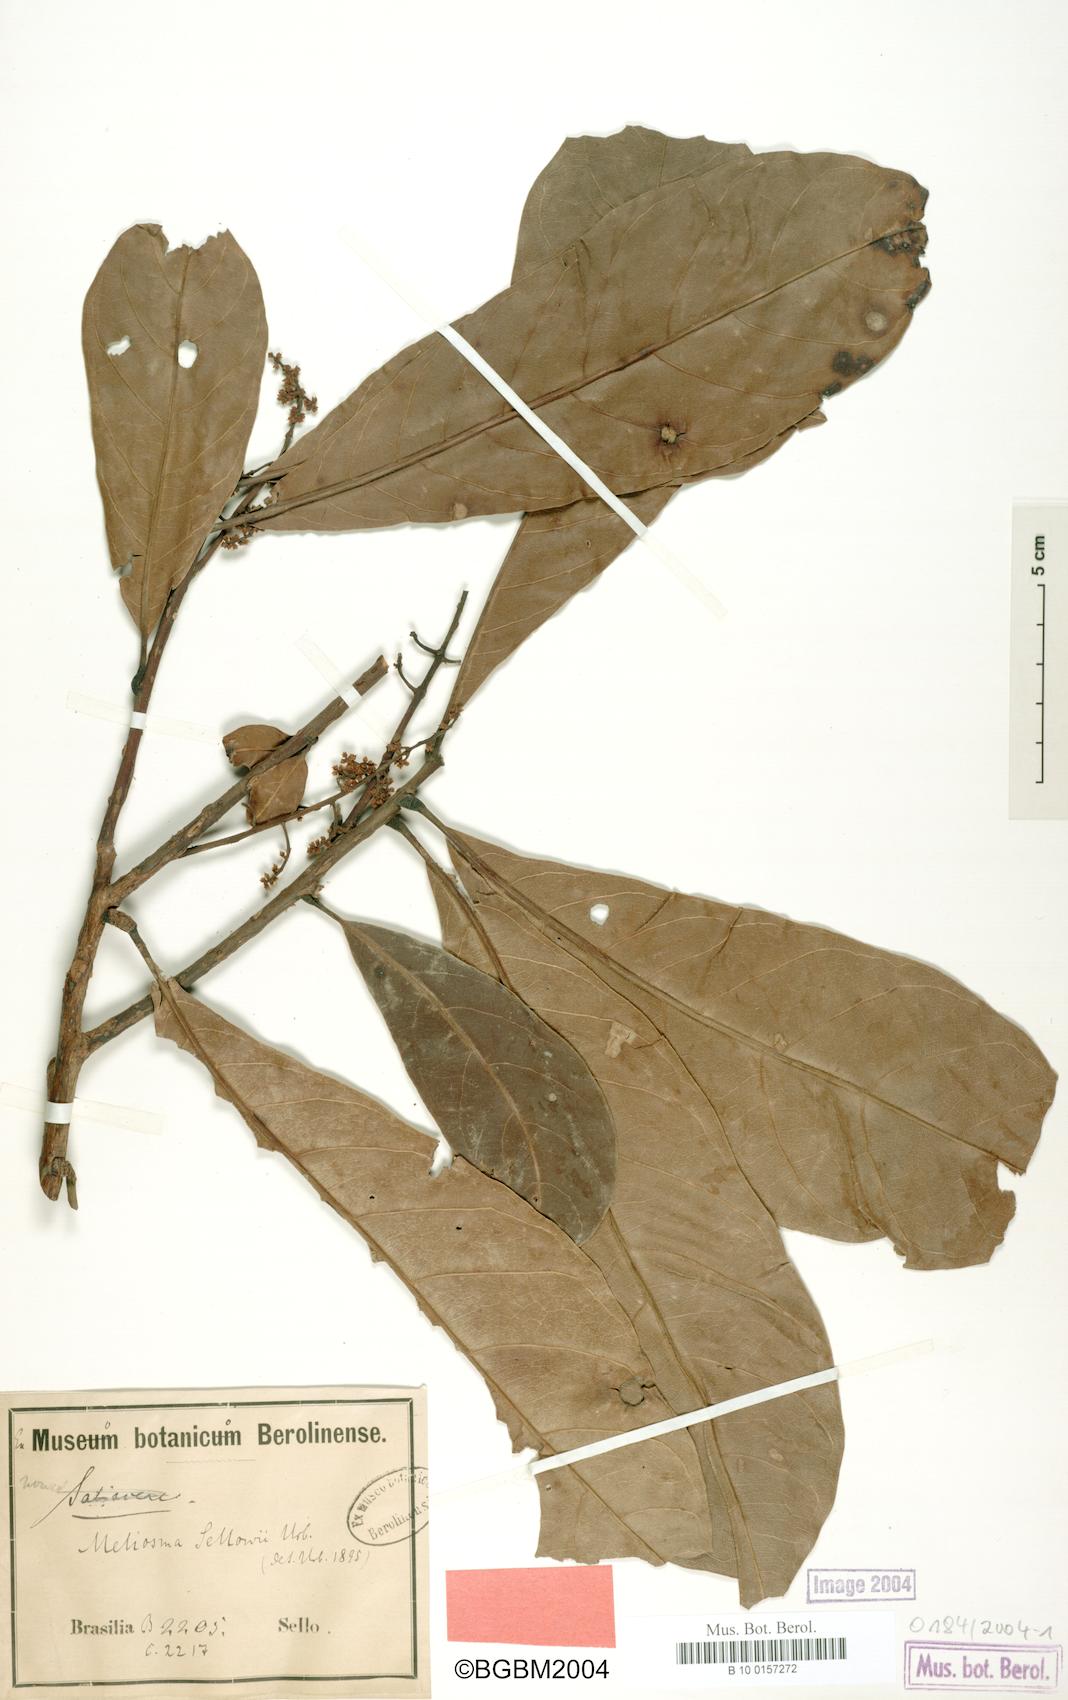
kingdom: Plantae
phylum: Tracheophyta
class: Magnoliopsida
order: Proteales
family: Sabiaceae
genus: Meliosma
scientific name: Meliosma sellowii
